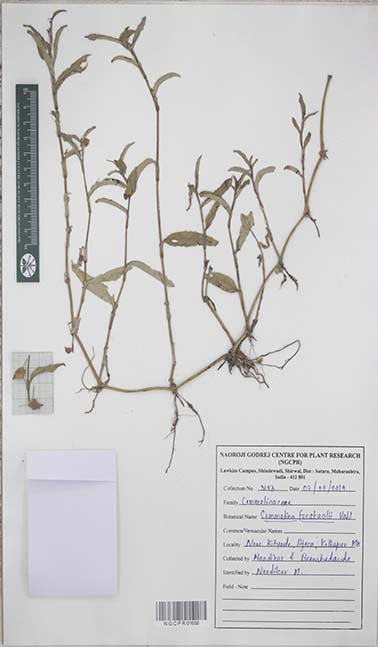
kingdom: Plantae
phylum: Tracheophyta
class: Liliopsida
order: Commelinales
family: Commelinaceae
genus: Commelina
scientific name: Commelina forskaolii
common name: Rat's ear
